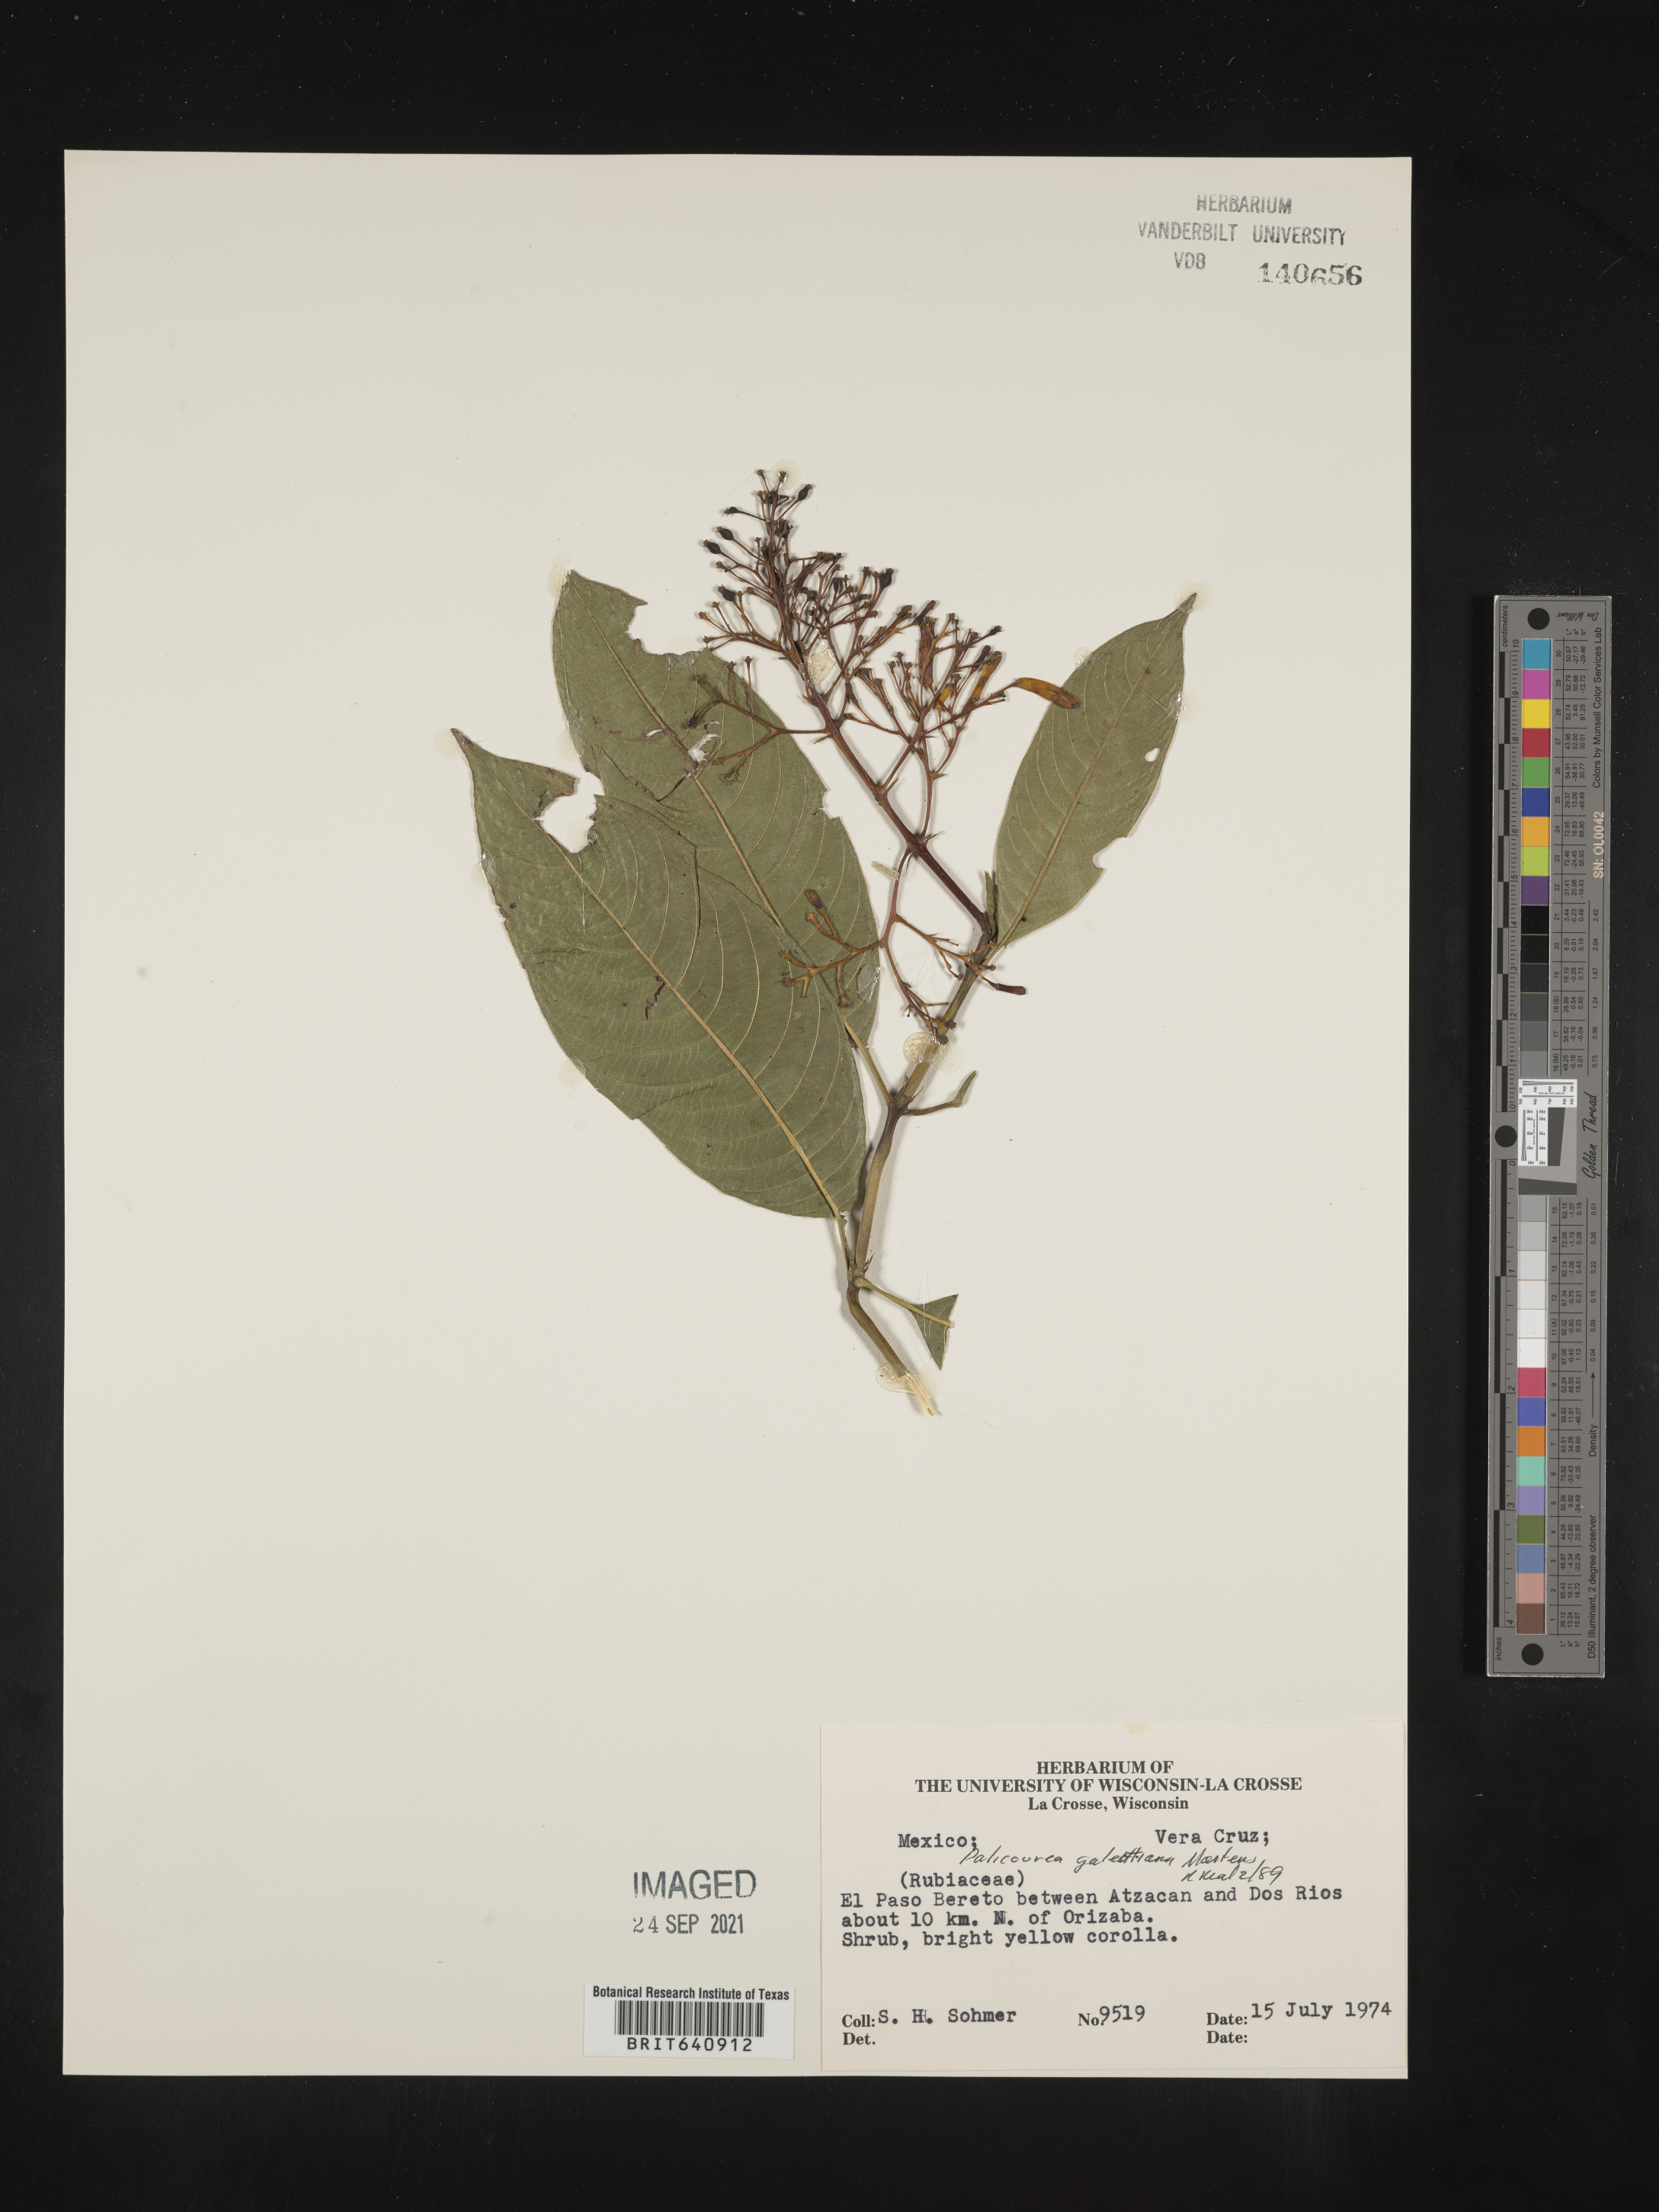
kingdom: Plantae
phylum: Tracheophyta
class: Magnoliopsida
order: Gentianales
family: Rubiaceae
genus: Palicourea
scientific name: Palicourea
